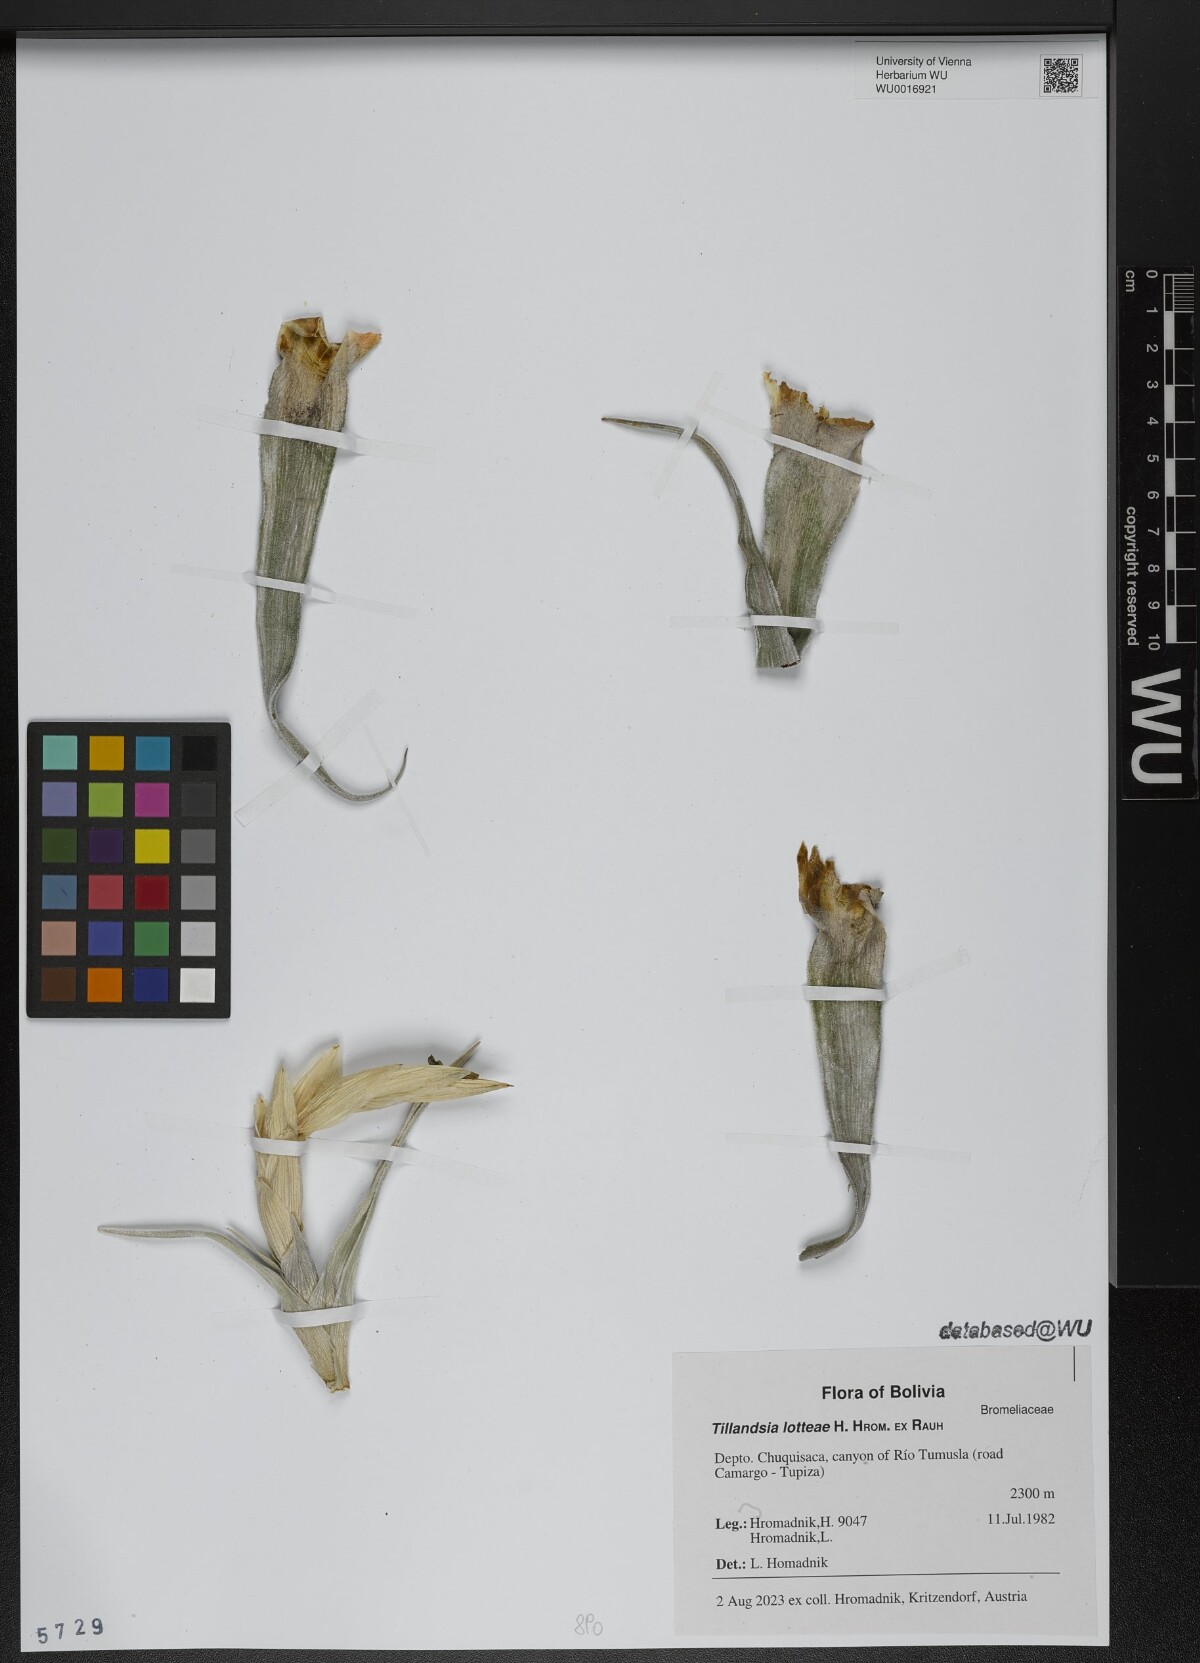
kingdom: Plantae
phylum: Tracheophyta
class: Liliopsida
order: Poales
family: Bromeliaceae
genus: Tillandsia
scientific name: Tillandsia lotteae
